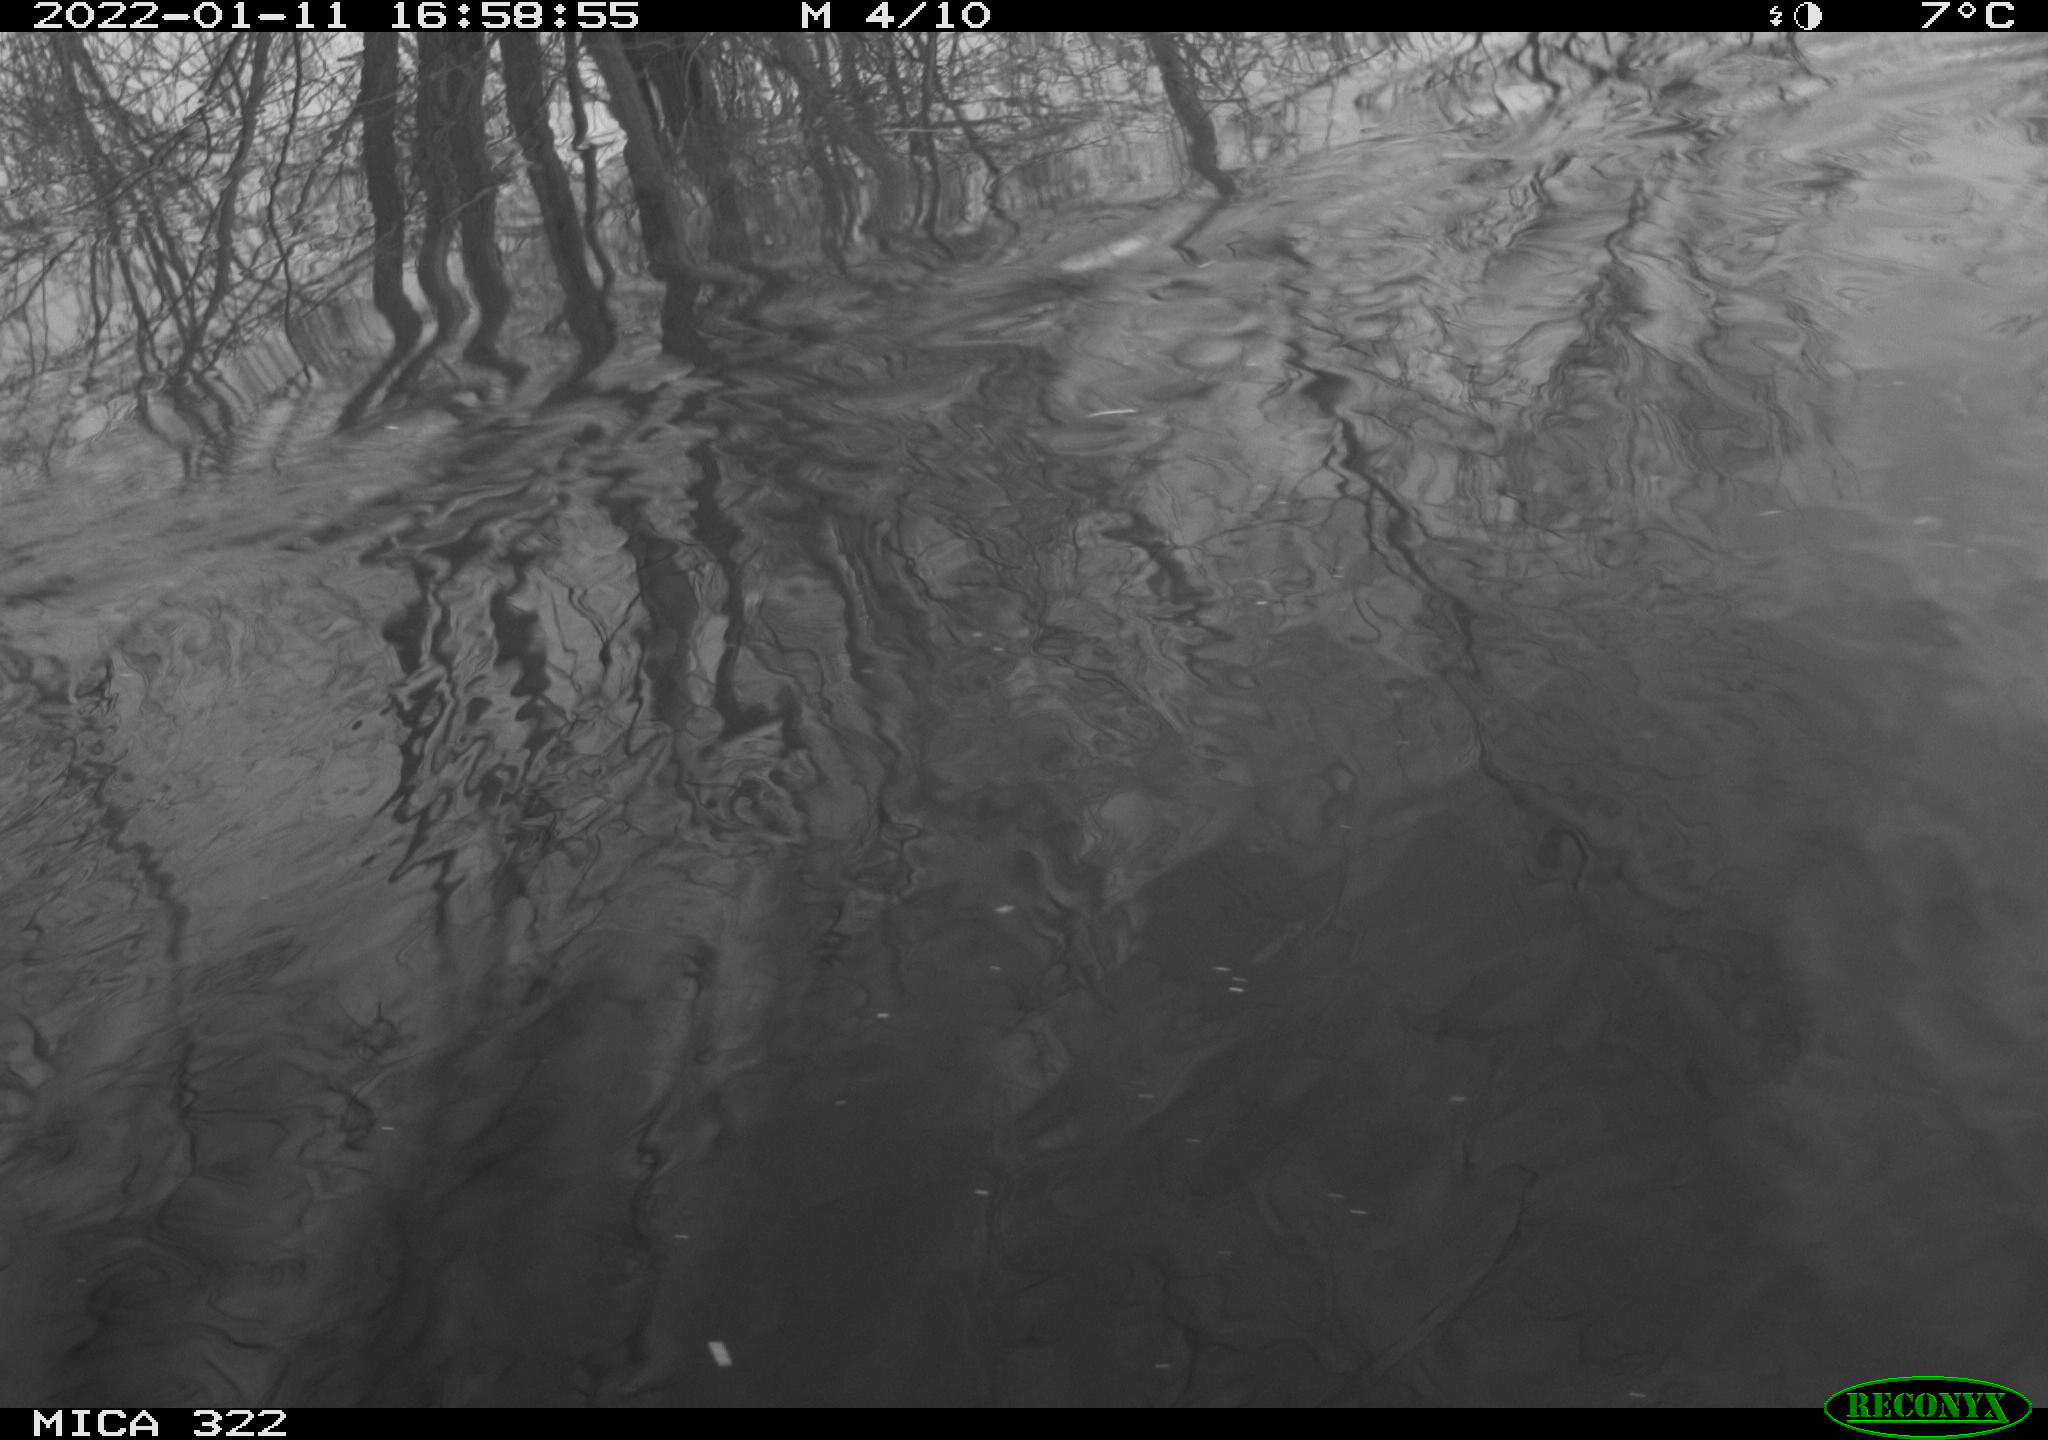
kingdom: Animalia
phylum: Chordata
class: Aves
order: Gruiformes
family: Rallidae
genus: Gallinula
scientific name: Gallinula chloropus
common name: Common moorhen
